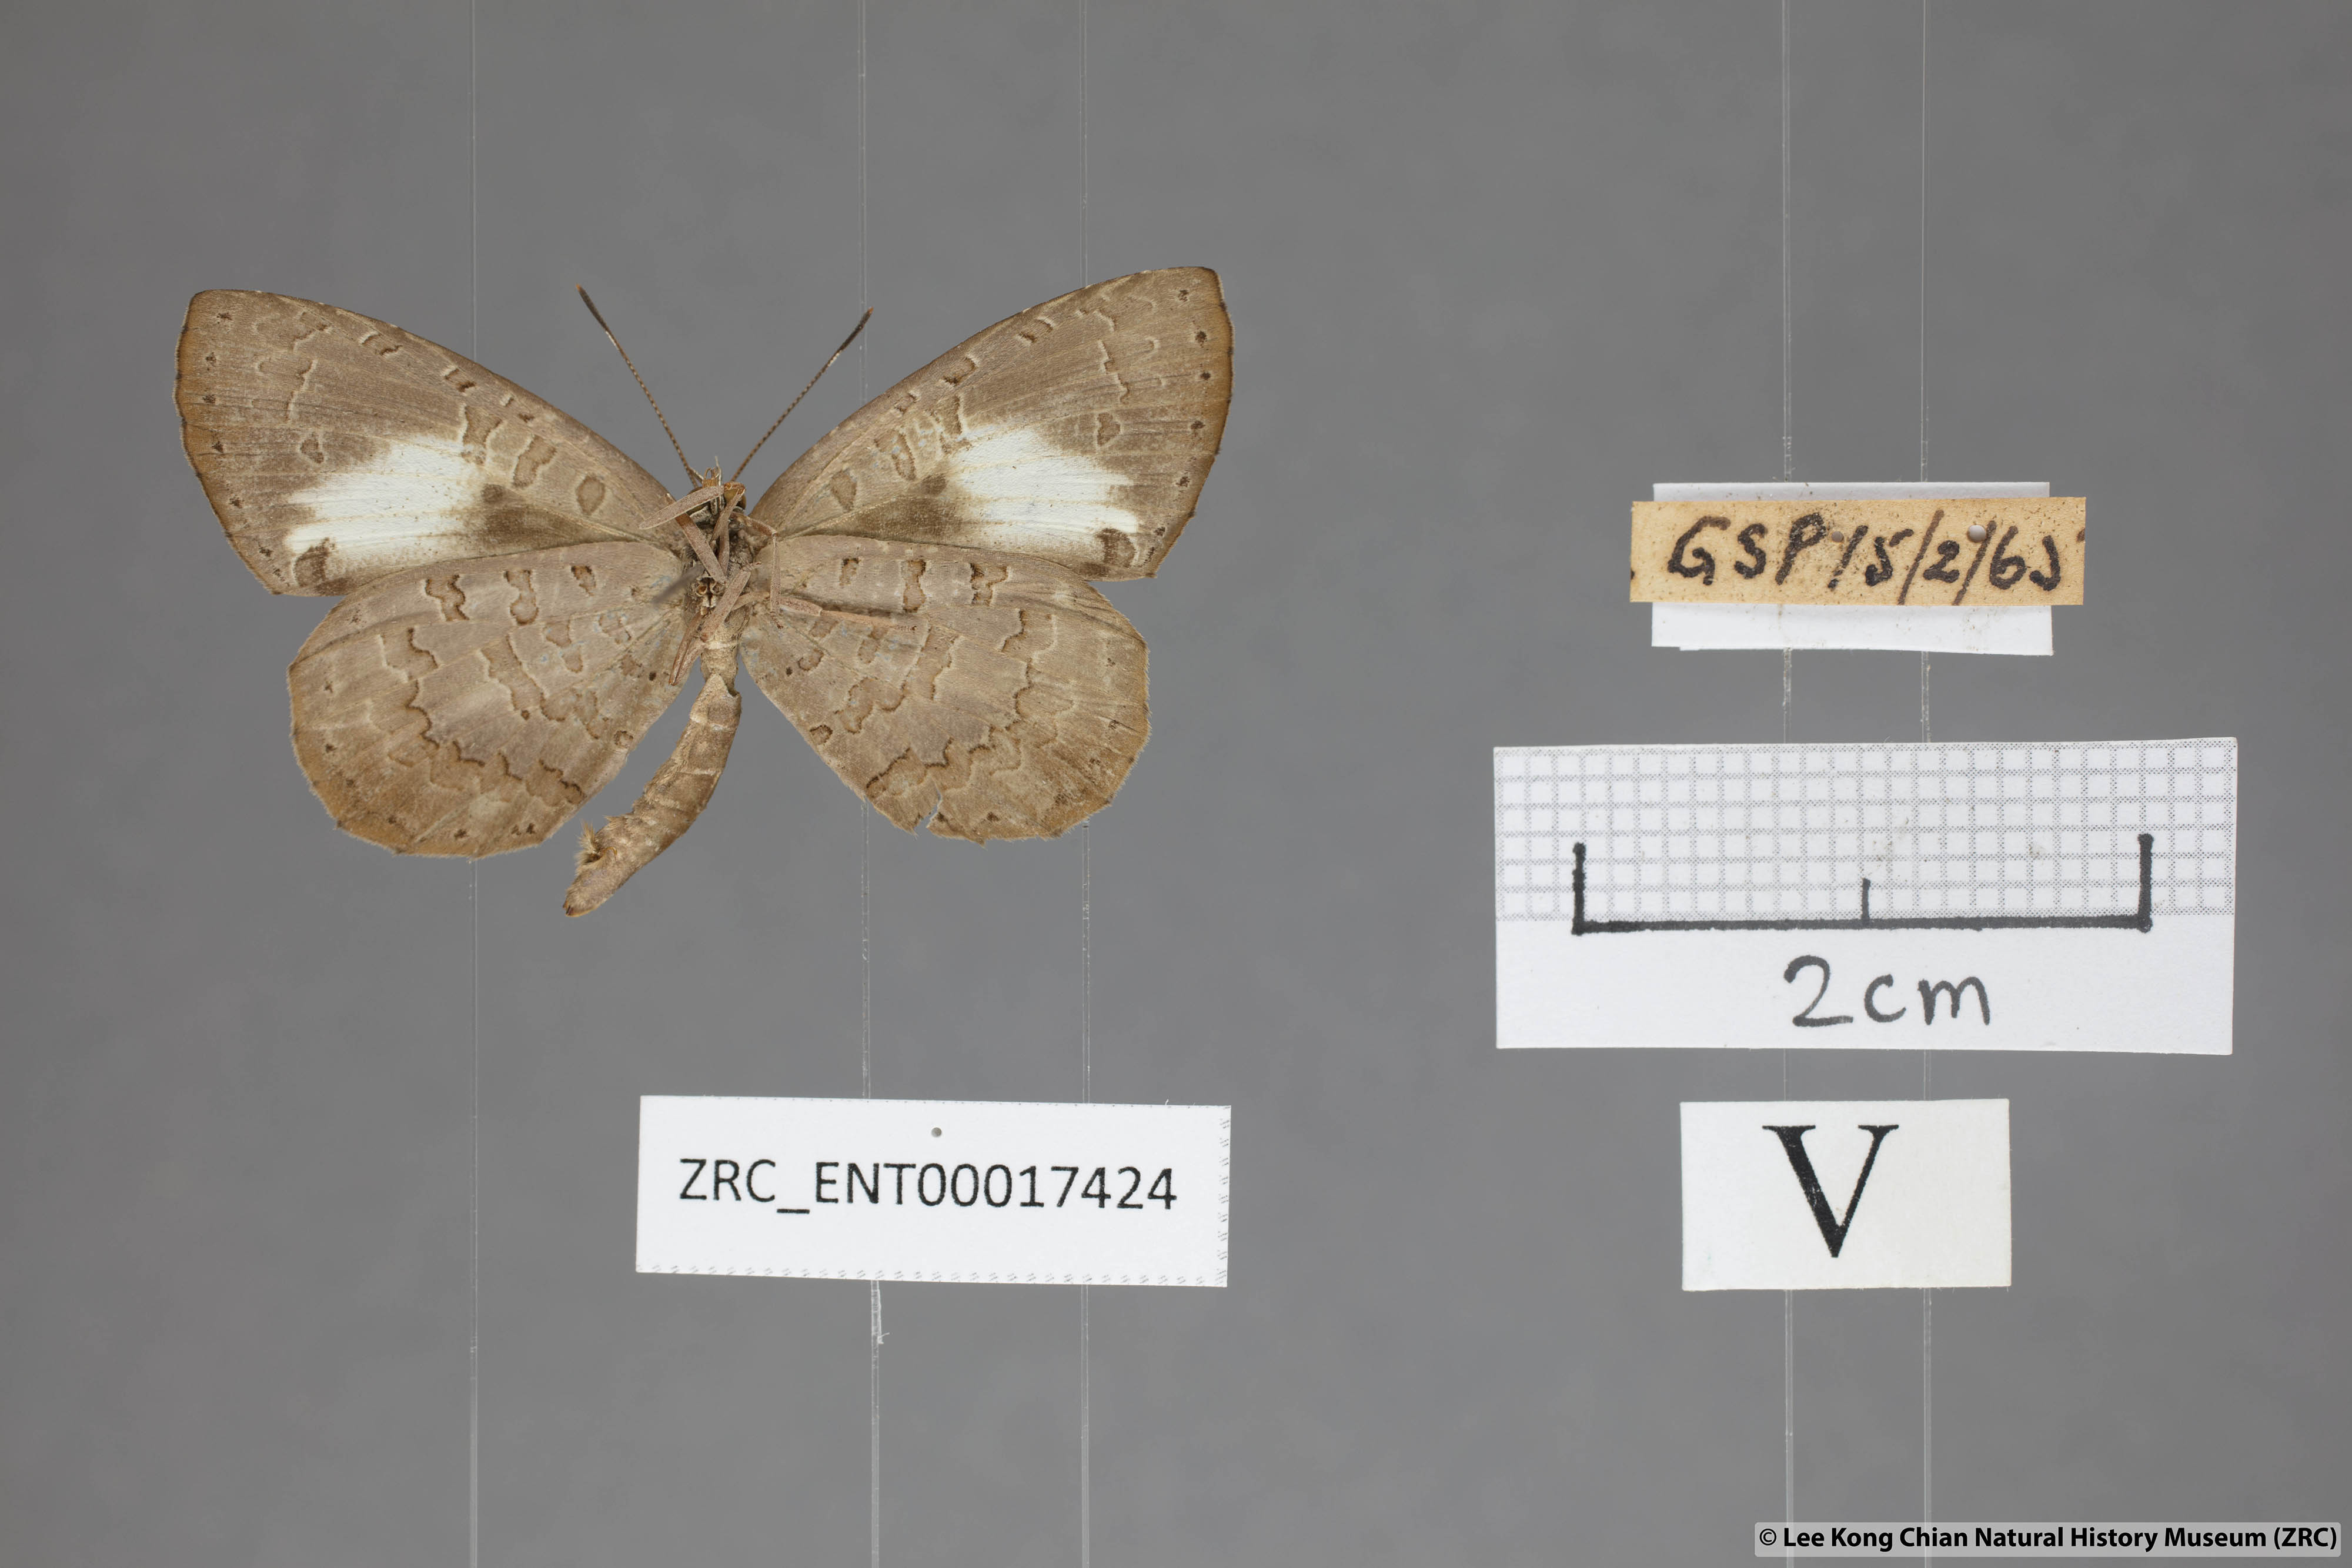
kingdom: Animalia
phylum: Arthropoda
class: Insecta
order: Lepidoptera
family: Lycaenidae
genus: Miletus
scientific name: Miletus biggsii
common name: Bigg's brownie
